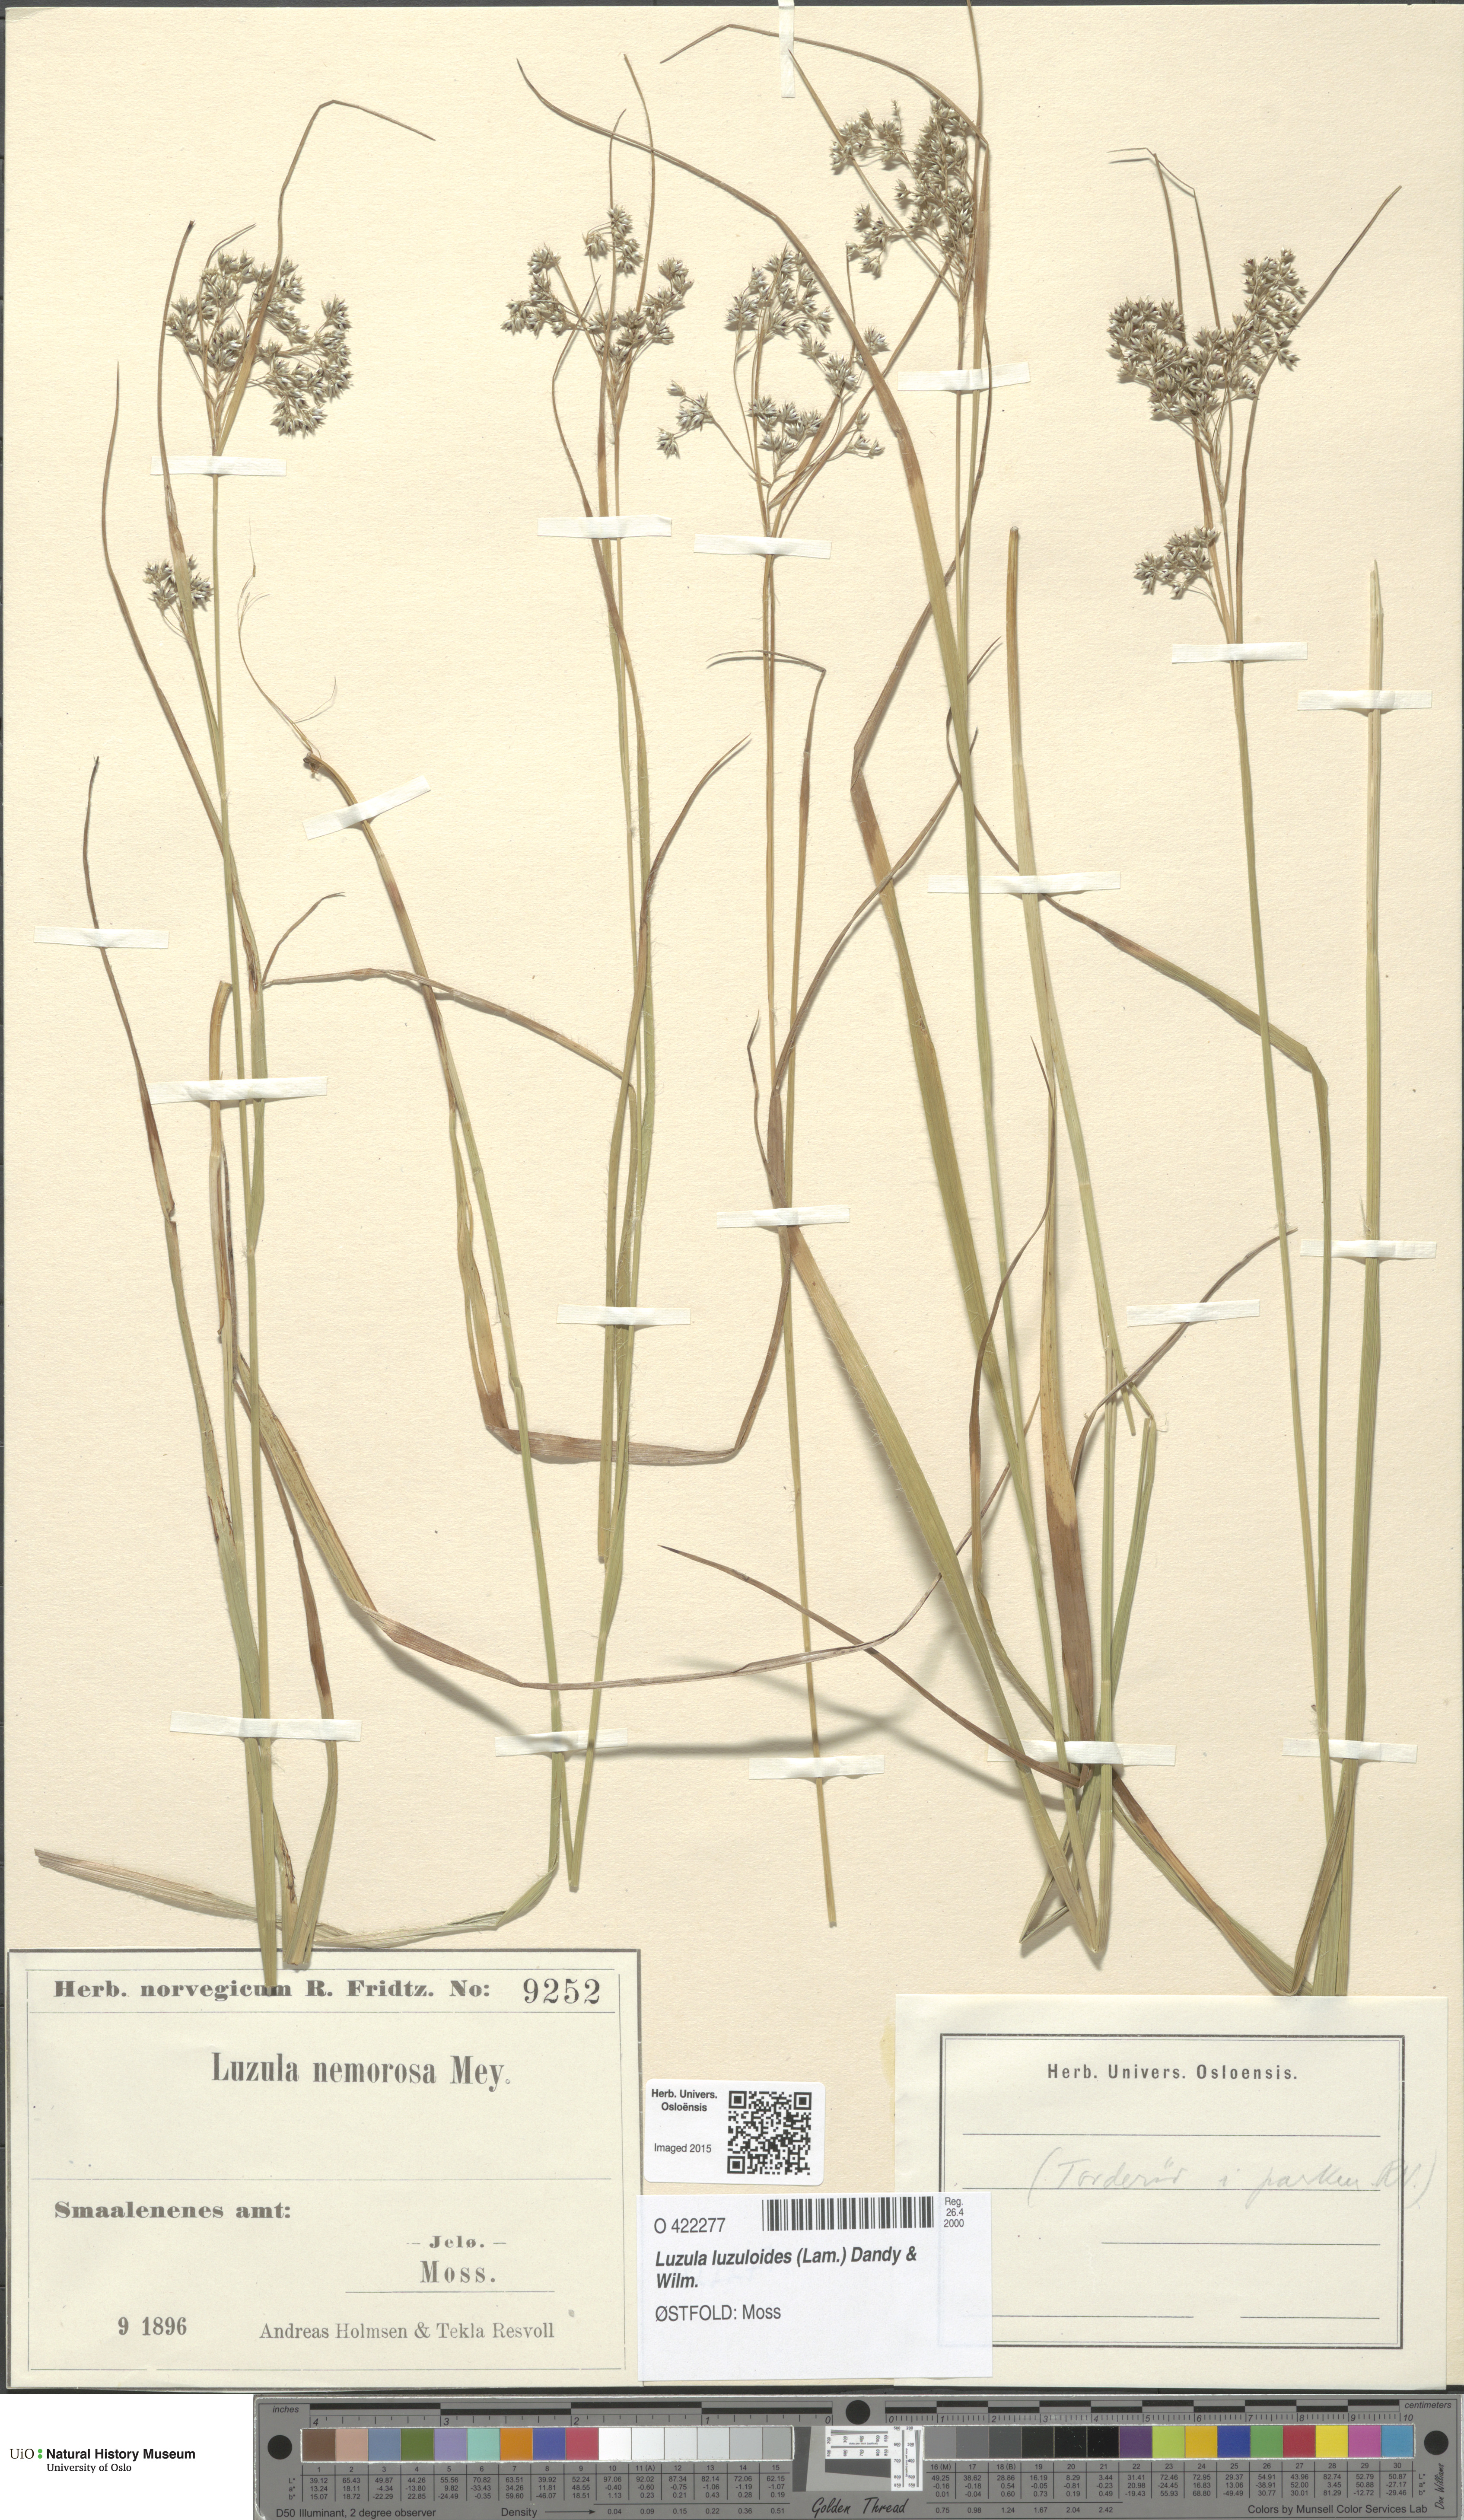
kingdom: Plantae
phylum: Tracheophyta
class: Liliopsida
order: Poales
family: Juncaceae
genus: Luzula
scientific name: Luzula luzuloides
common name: White wood-rush
